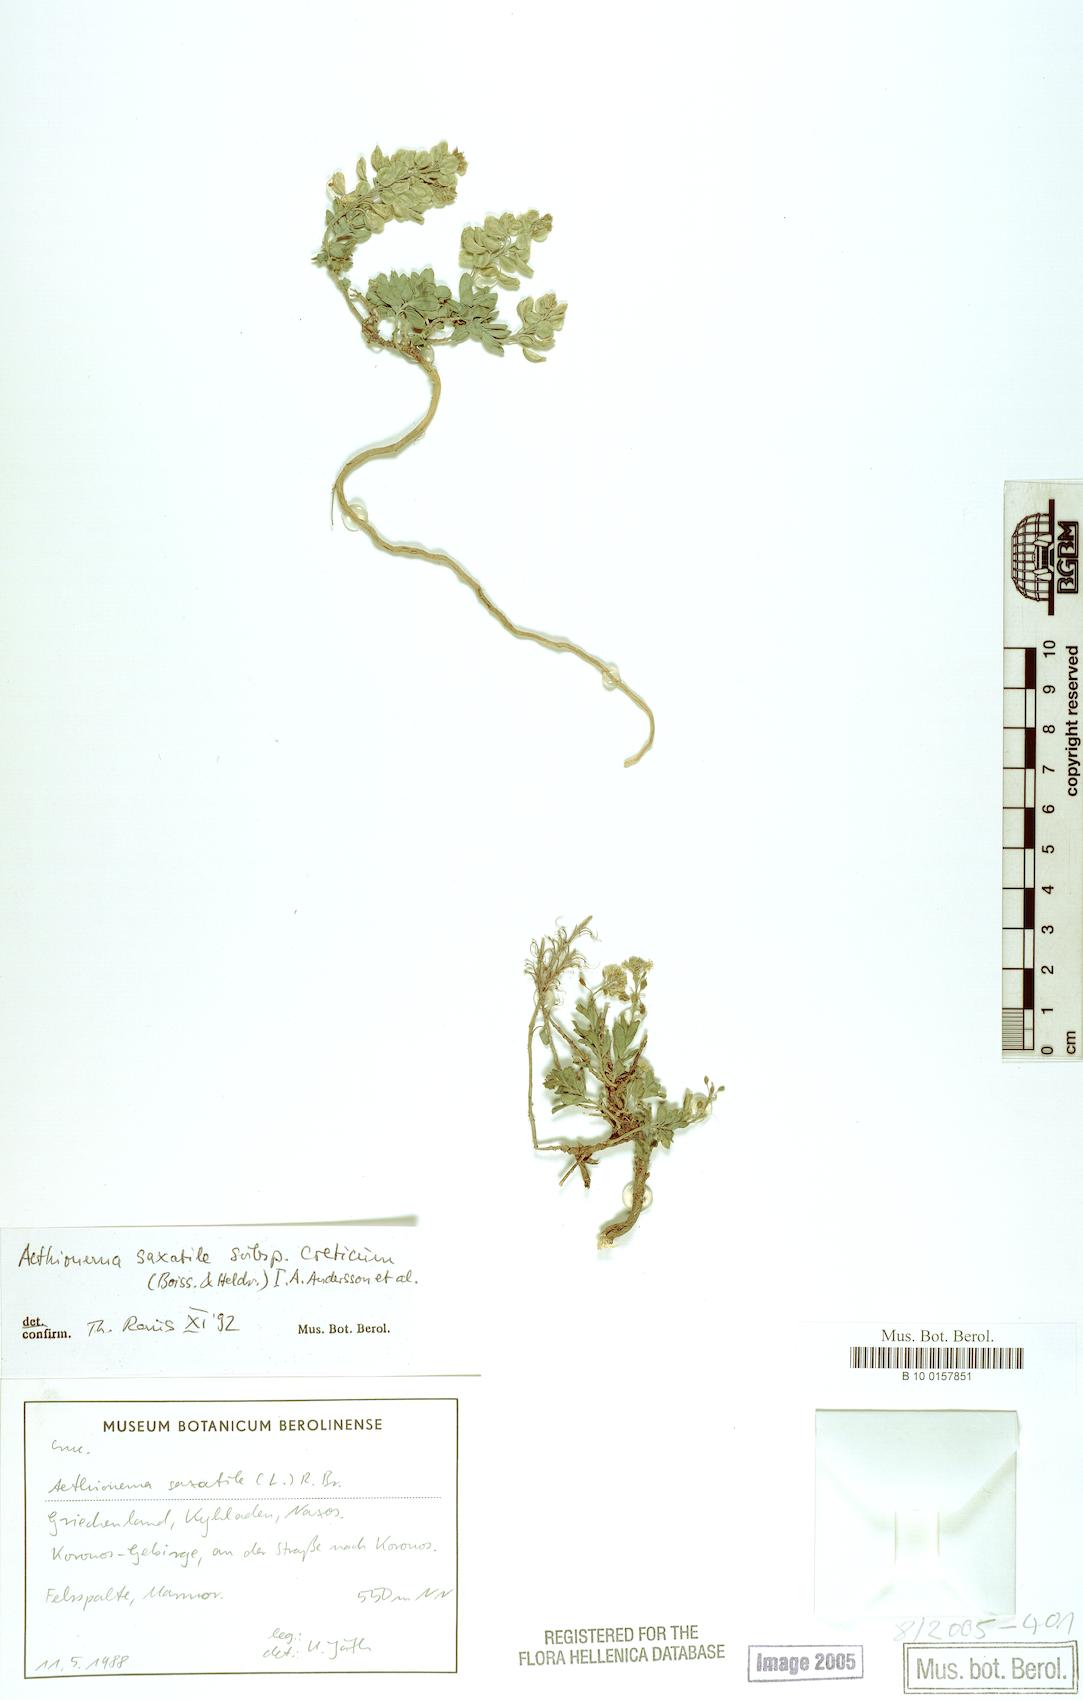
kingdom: Plantae
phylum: Tracheophyta
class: Magnoliopsida
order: Brassicales
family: Brassicaceae
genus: Aethionema
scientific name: Aethionema saxatile
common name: Burnt candytuft
